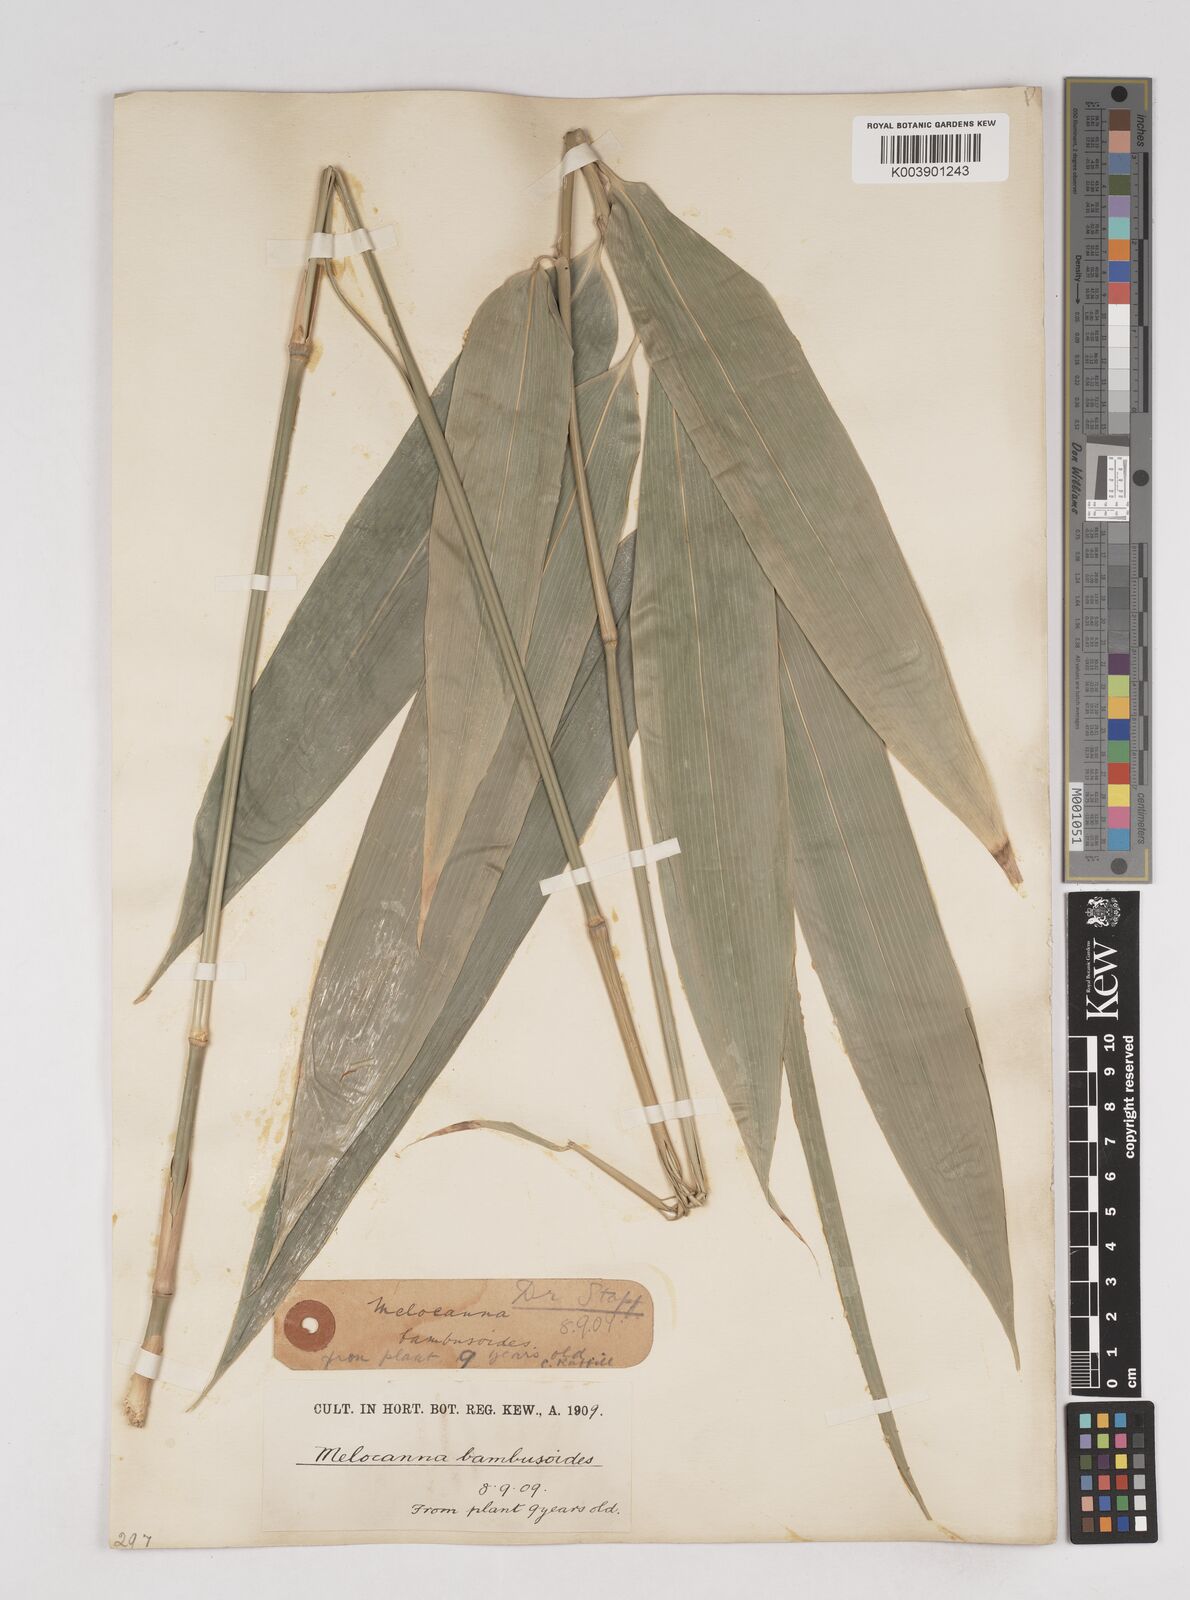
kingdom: Plantae
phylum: Tracheophyta
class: Liliopsida
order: Poales
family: Poaceae
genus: Melocanna
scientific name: Melocanna baccifera
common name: Berry bamboo
